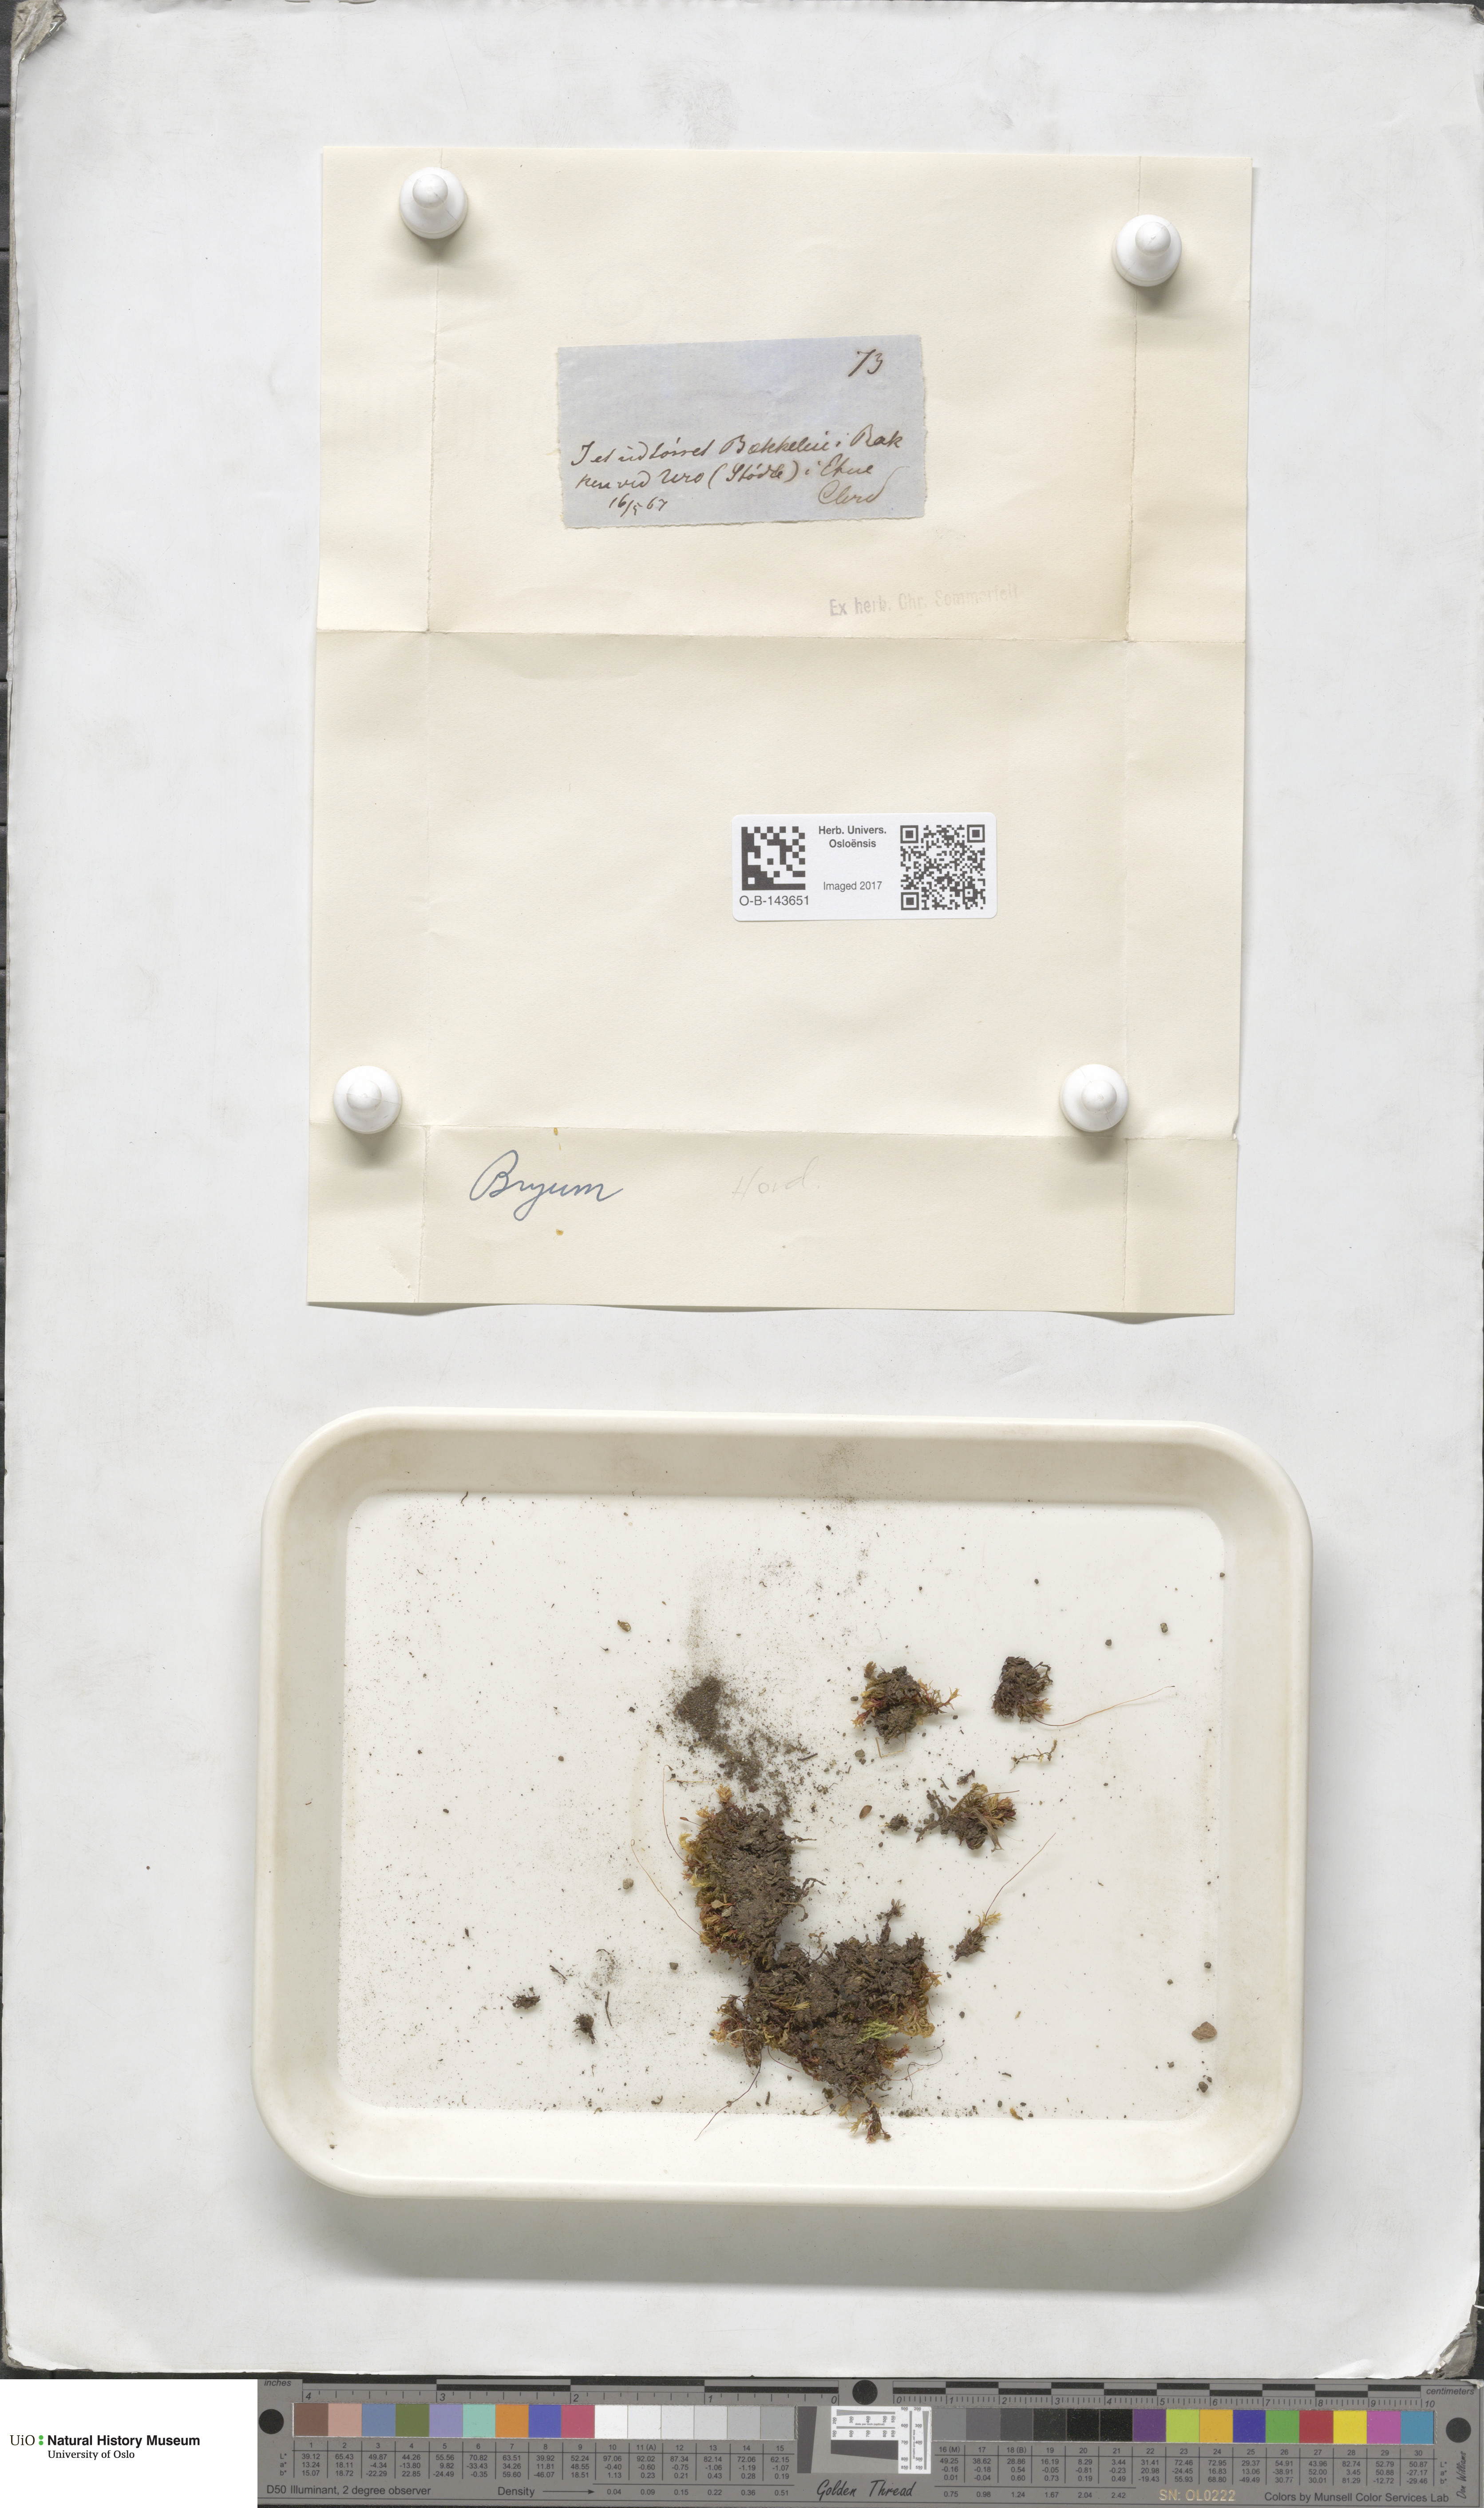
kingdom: Plantae
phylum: Bryophyta
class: Bryopsida
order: Bryales
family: Bryaceae
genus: Bryum
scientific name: Bryum
